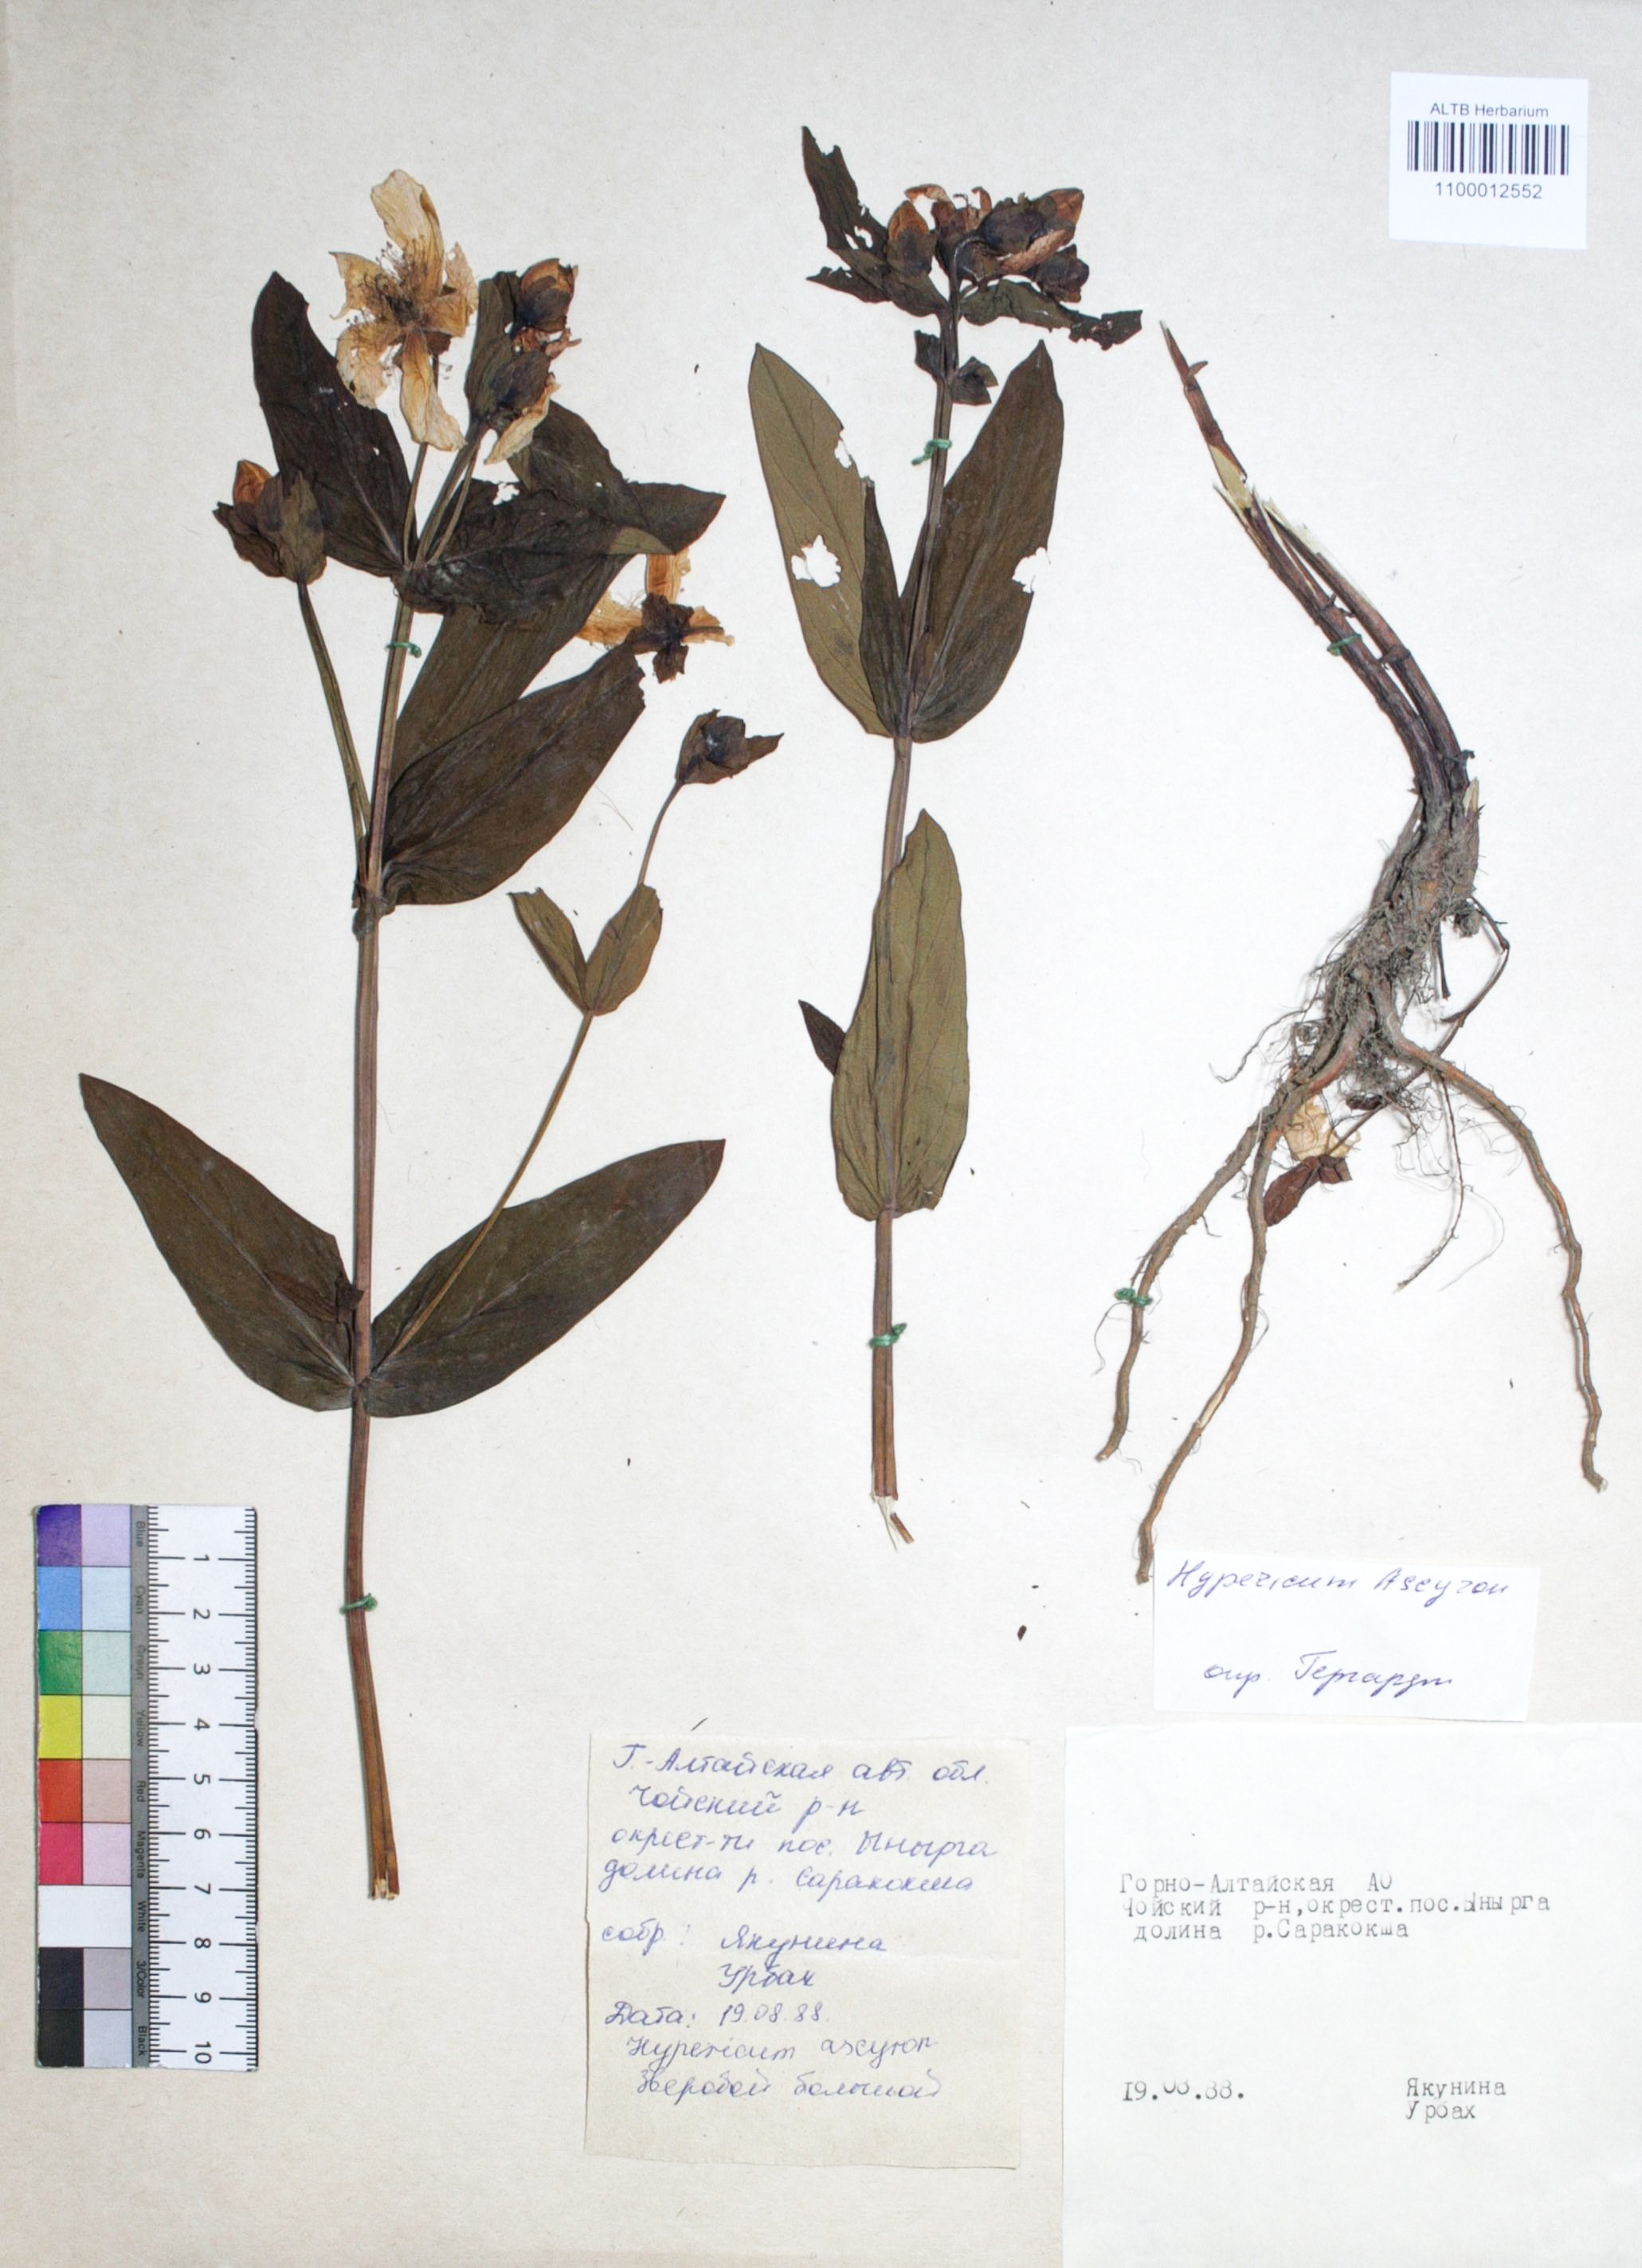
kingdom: Plantae
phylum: Tracheophyta
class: Magnoliopsida
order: Malpighiales
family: Hypericaceae
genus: Hypericum
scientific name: Hypericum ascyron
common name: Giant st. john's-wort
